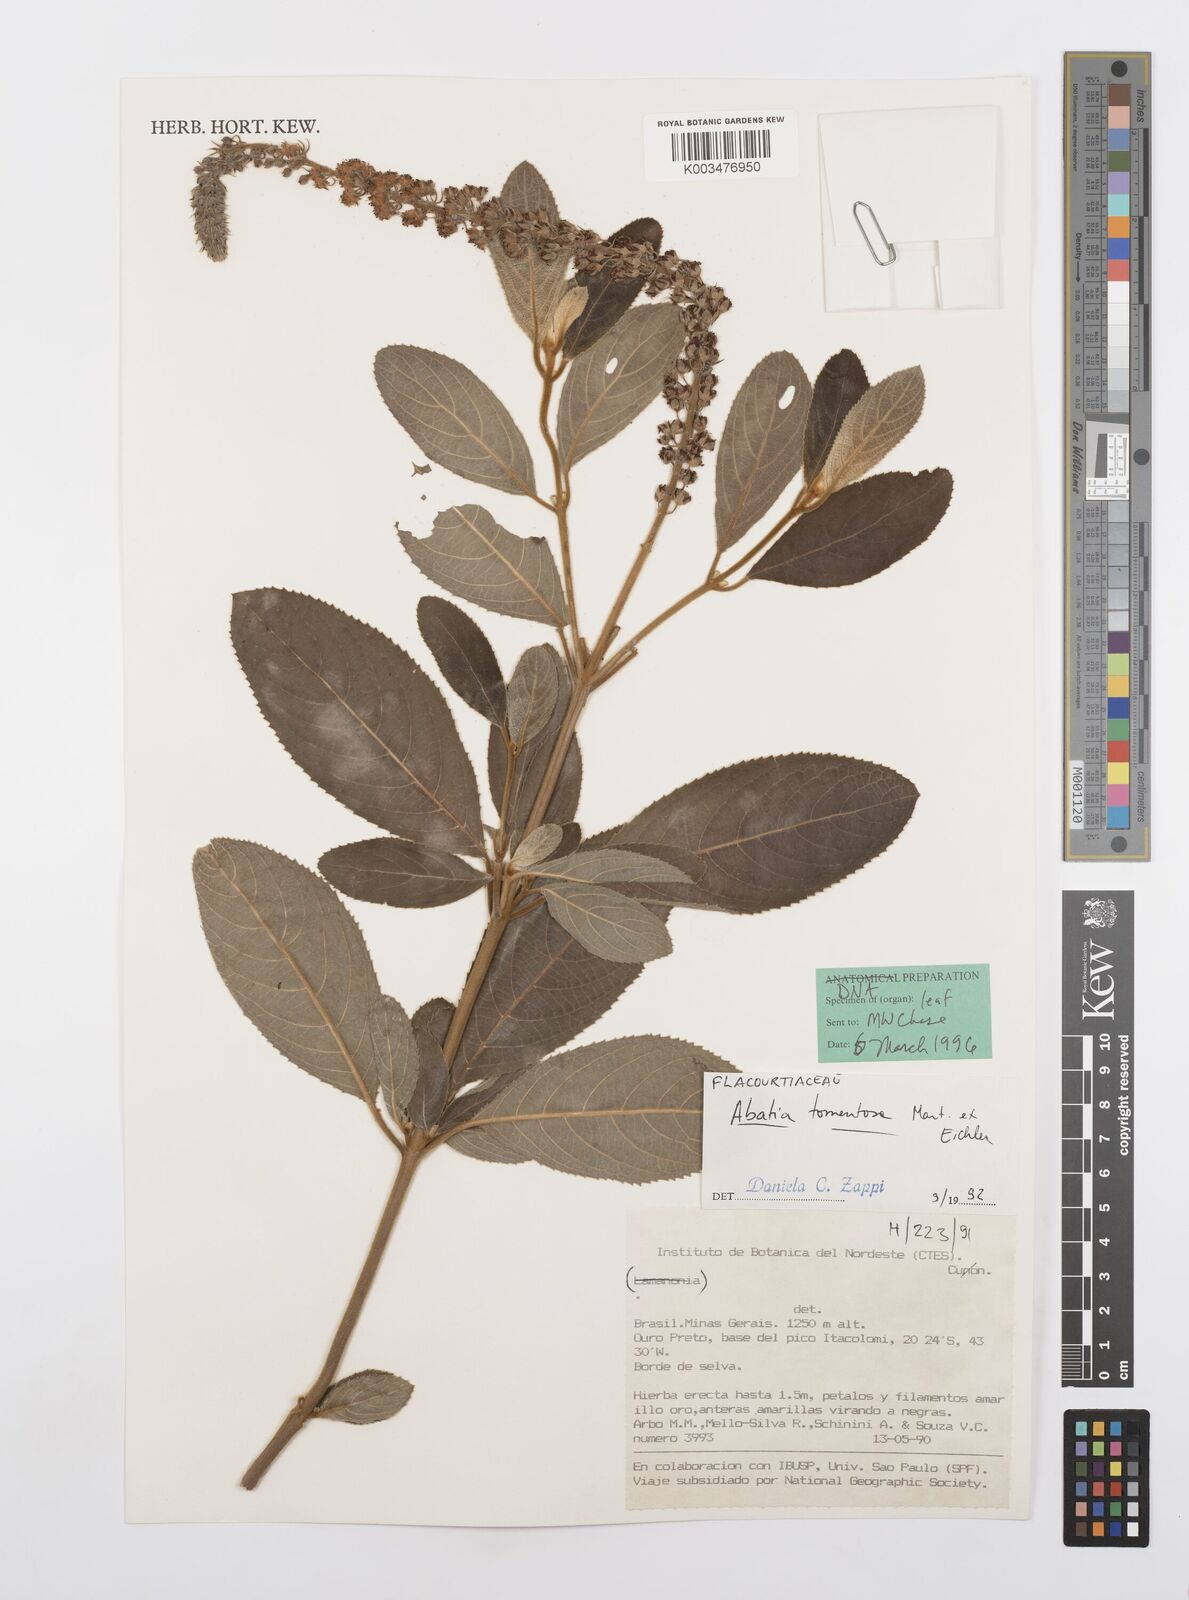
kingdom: Plantae
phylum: Tracheophyta
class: Magnoliopsida
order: Malpighiales
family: Salicaceae
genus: Abatia
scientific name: Abatia americana
